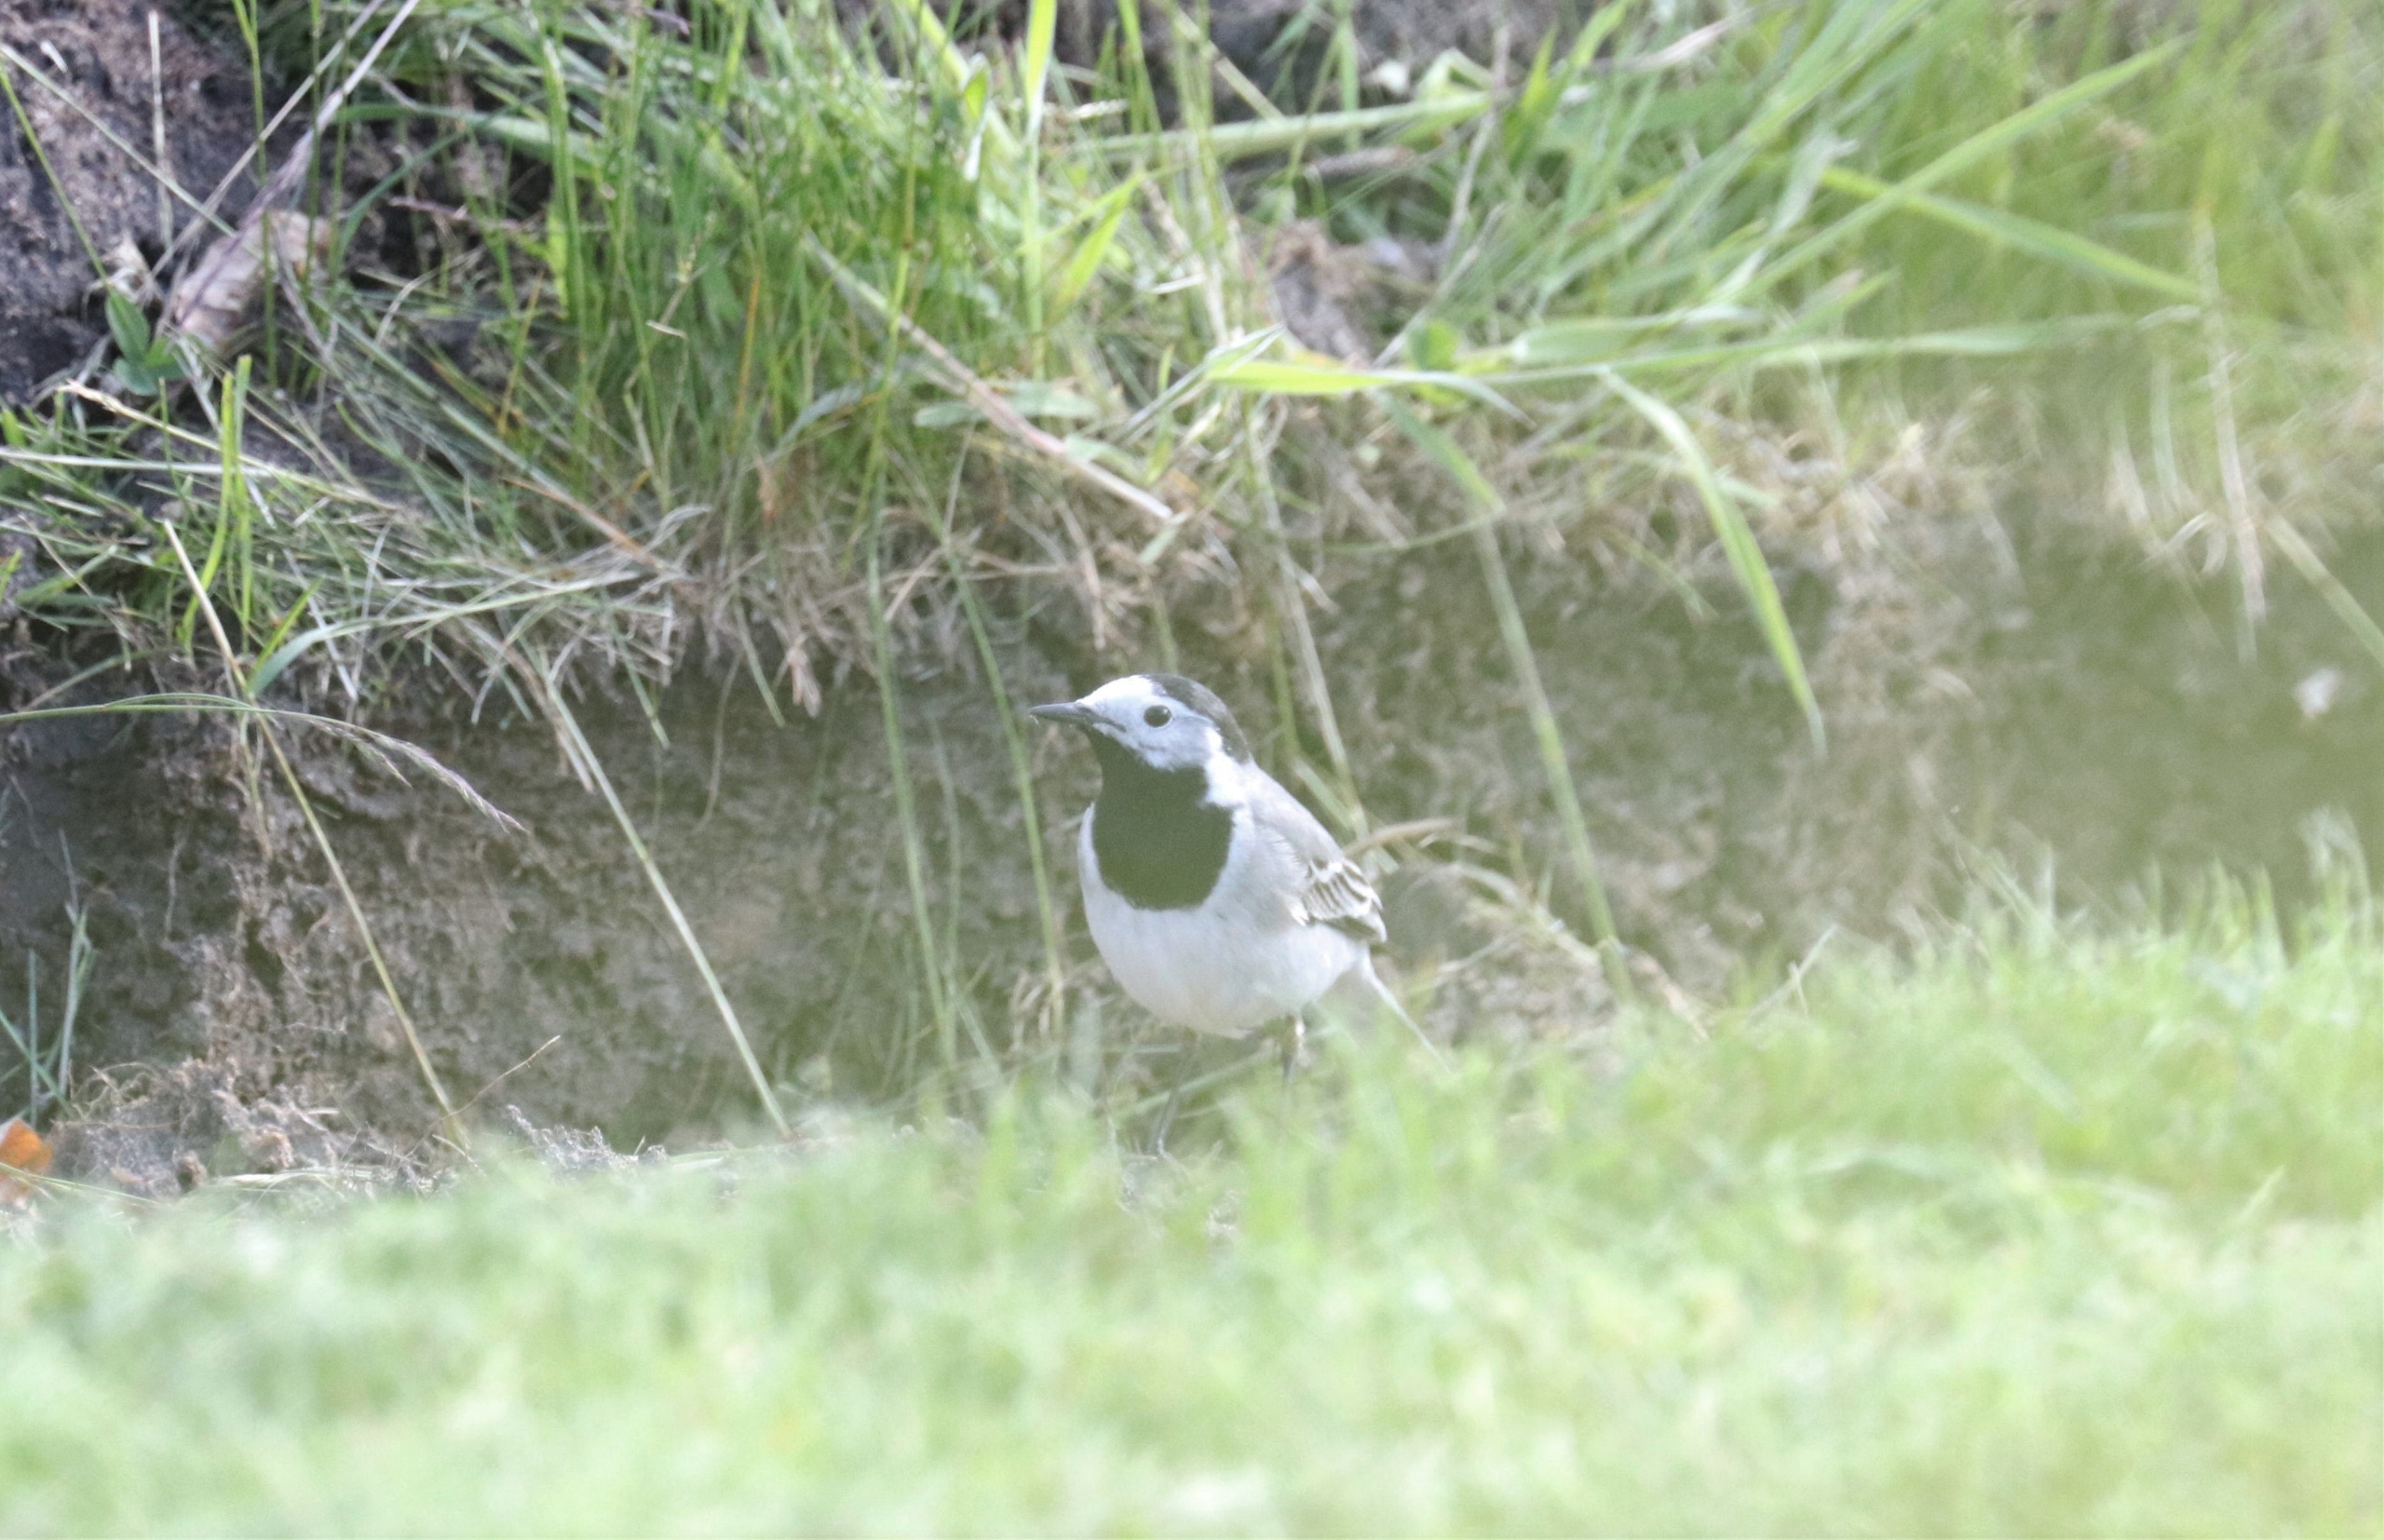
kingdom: Animalia
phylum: Chordata
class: Aves
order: Passeriformes
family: Motacillidae
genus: Motacilla
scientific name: Motacilla alba
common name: Hvid vipstjert
